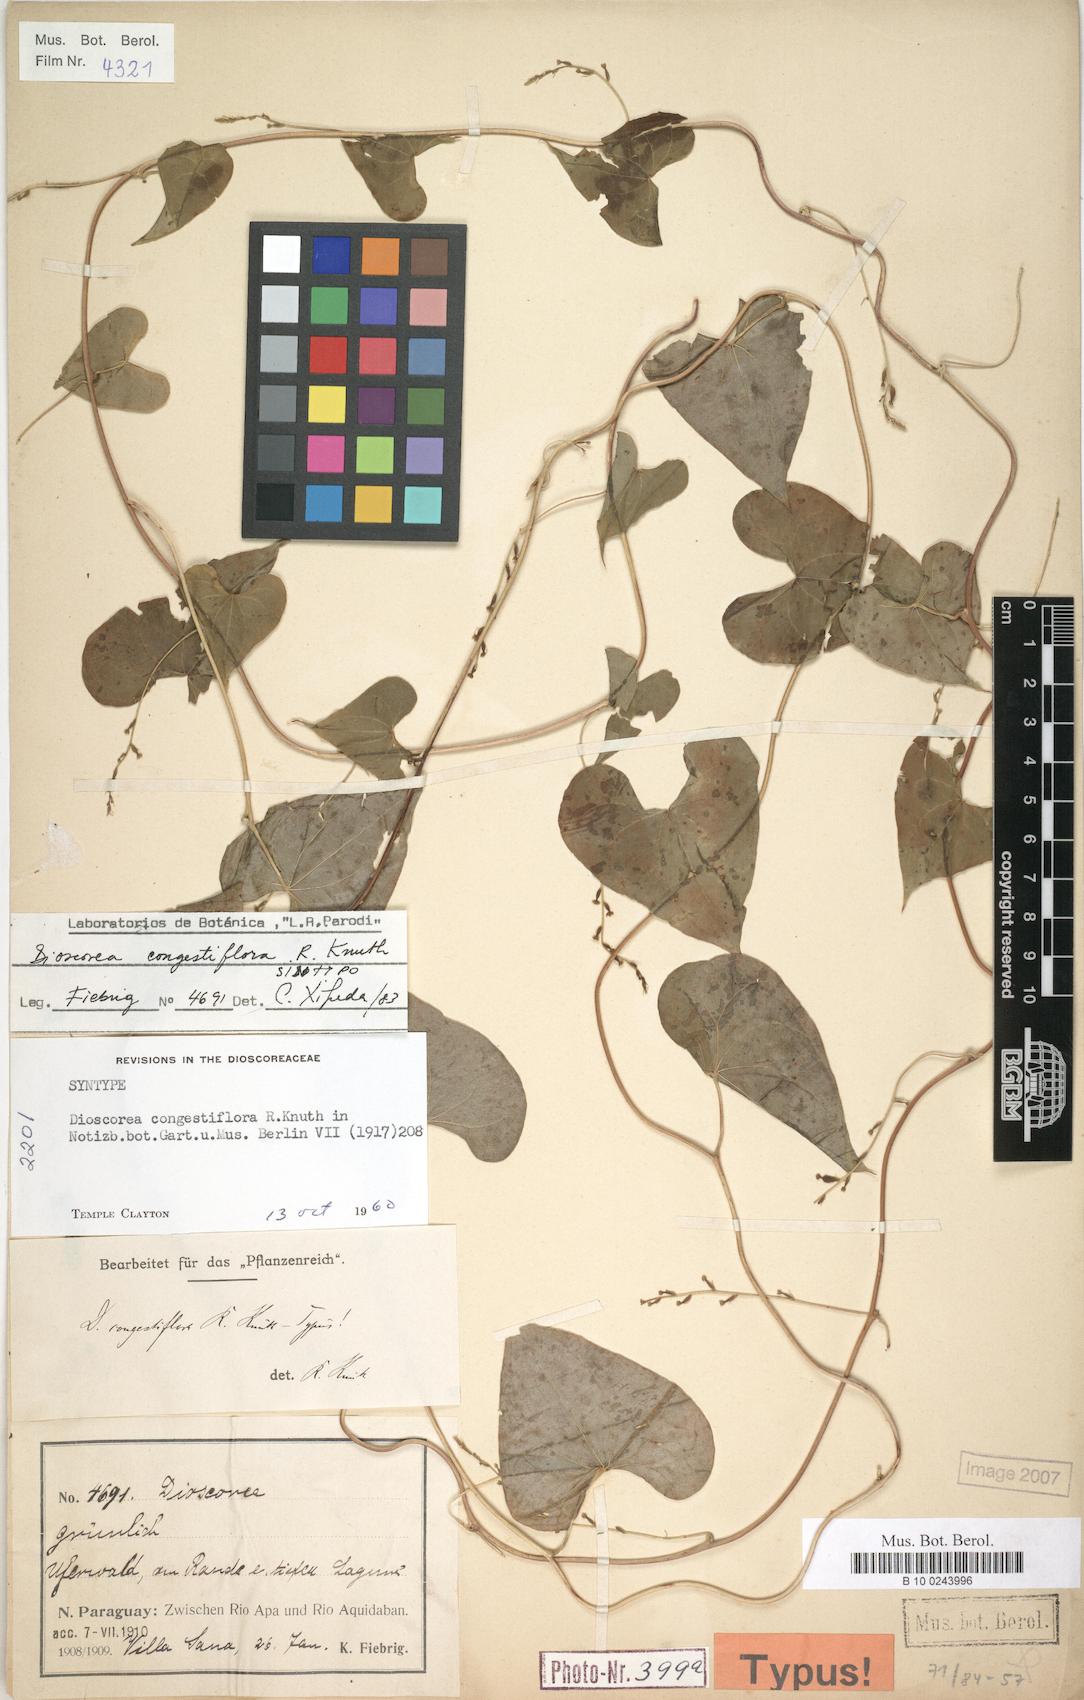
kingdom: Plantae
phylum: Tracheophyta
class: Liliopsida
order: Dioscoreales
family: Dioscoreaceae
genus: Dioscorea
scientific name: Dioscorea ceratandra
